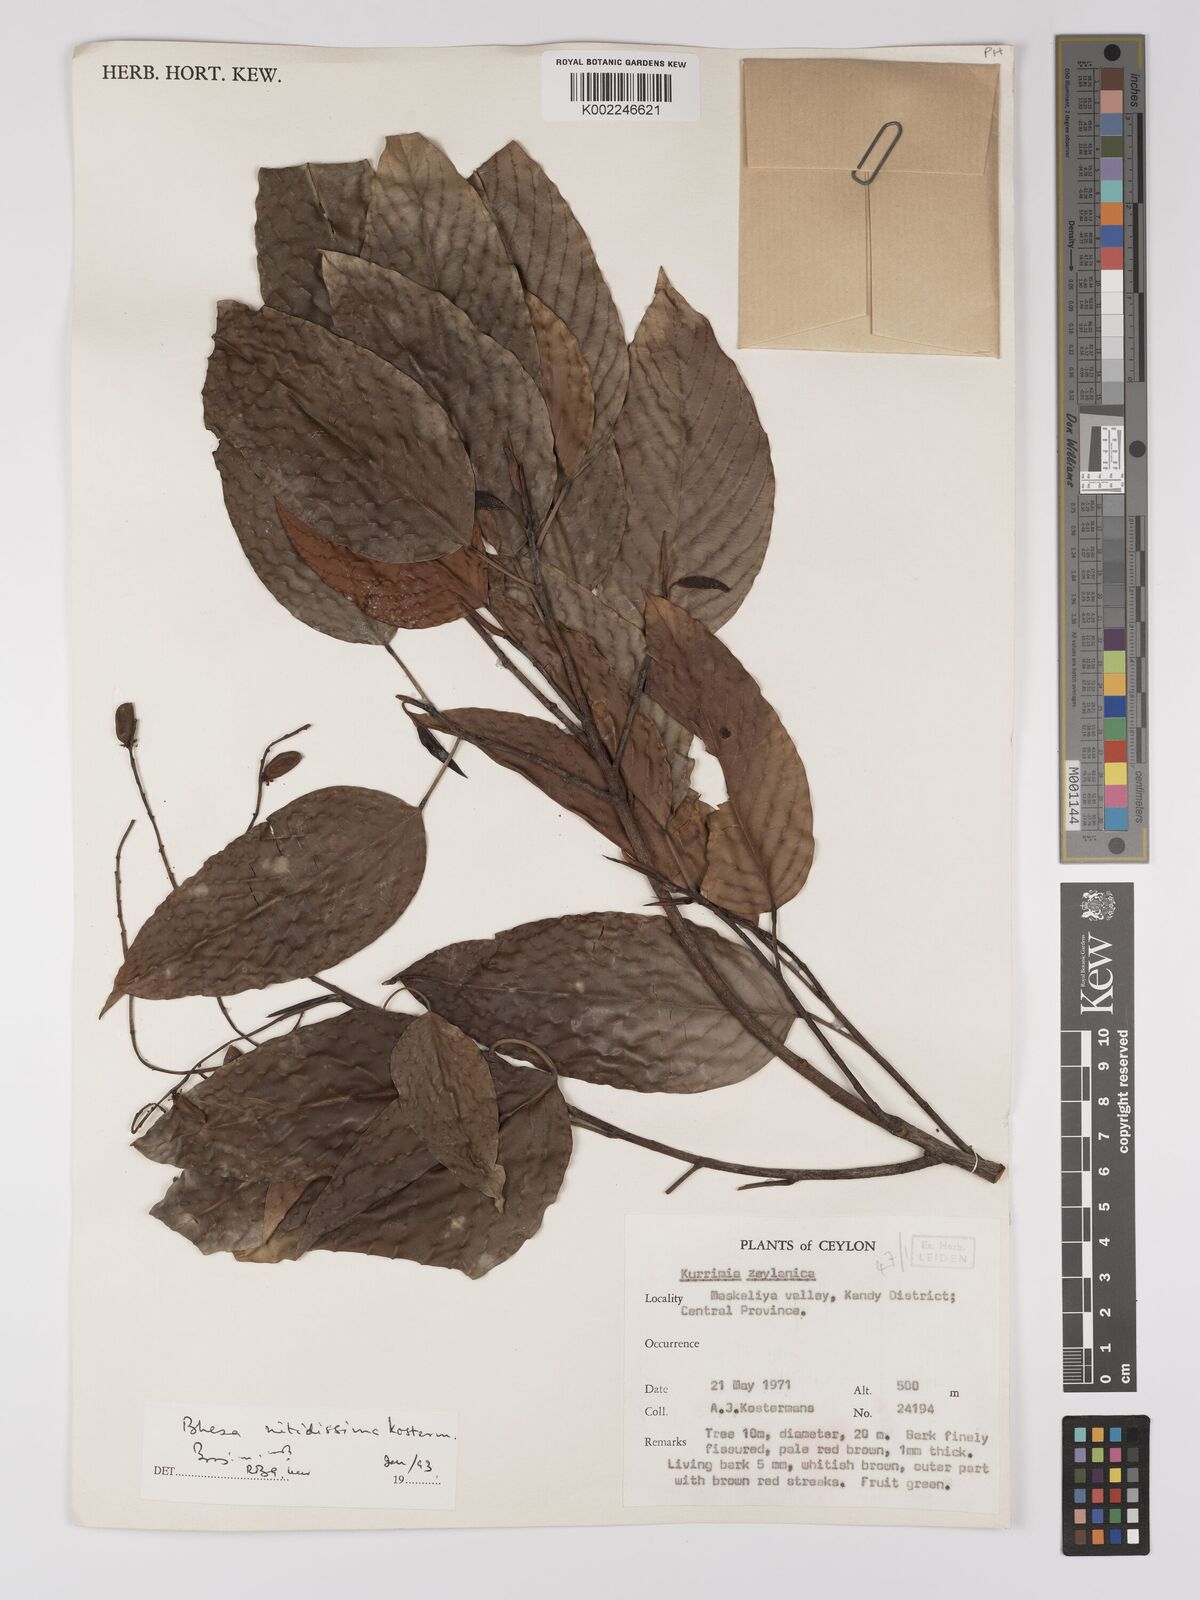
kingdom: Plantae
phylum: Tracheophyta
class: Magnoliopsida
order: Malpighiales
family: Centroplacaceae
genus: Bhesa
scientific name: Bhesa nitidissima
